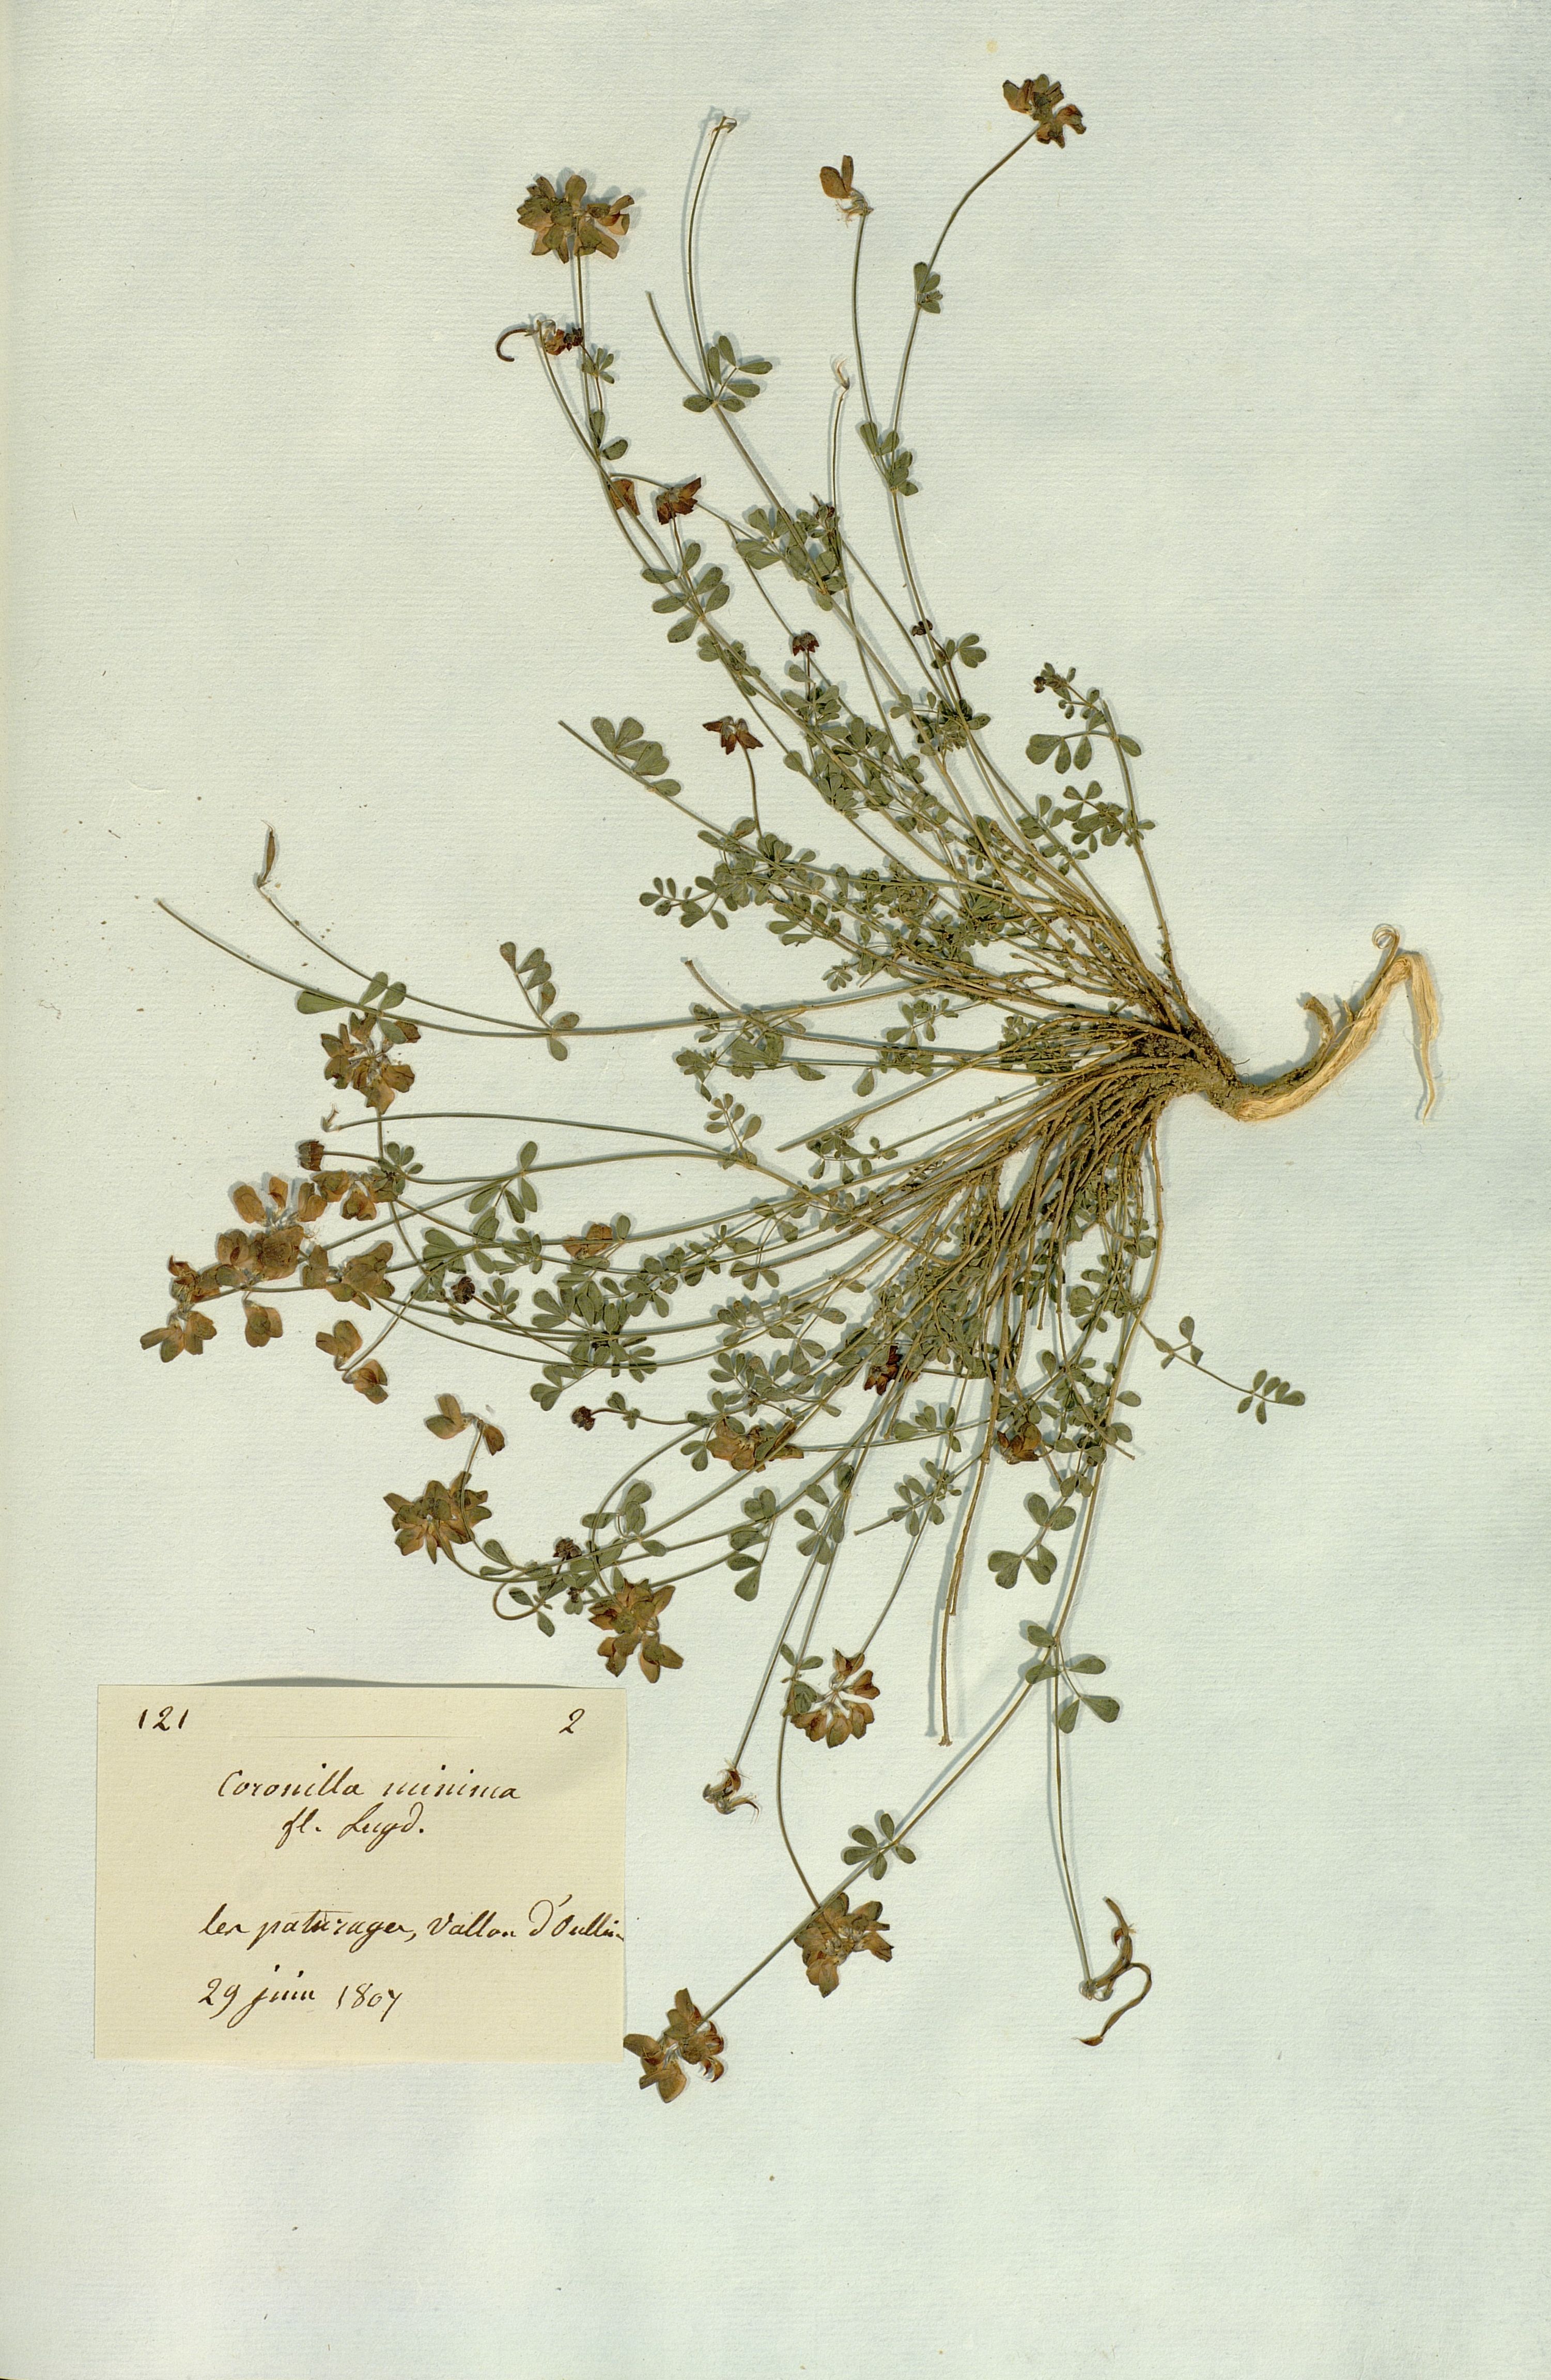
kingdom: Plantae
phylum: Tracheophyta
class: Magnoliopsida
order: Fabales
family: Fabaceae
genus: Coronilla
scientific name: Coronilla minima
